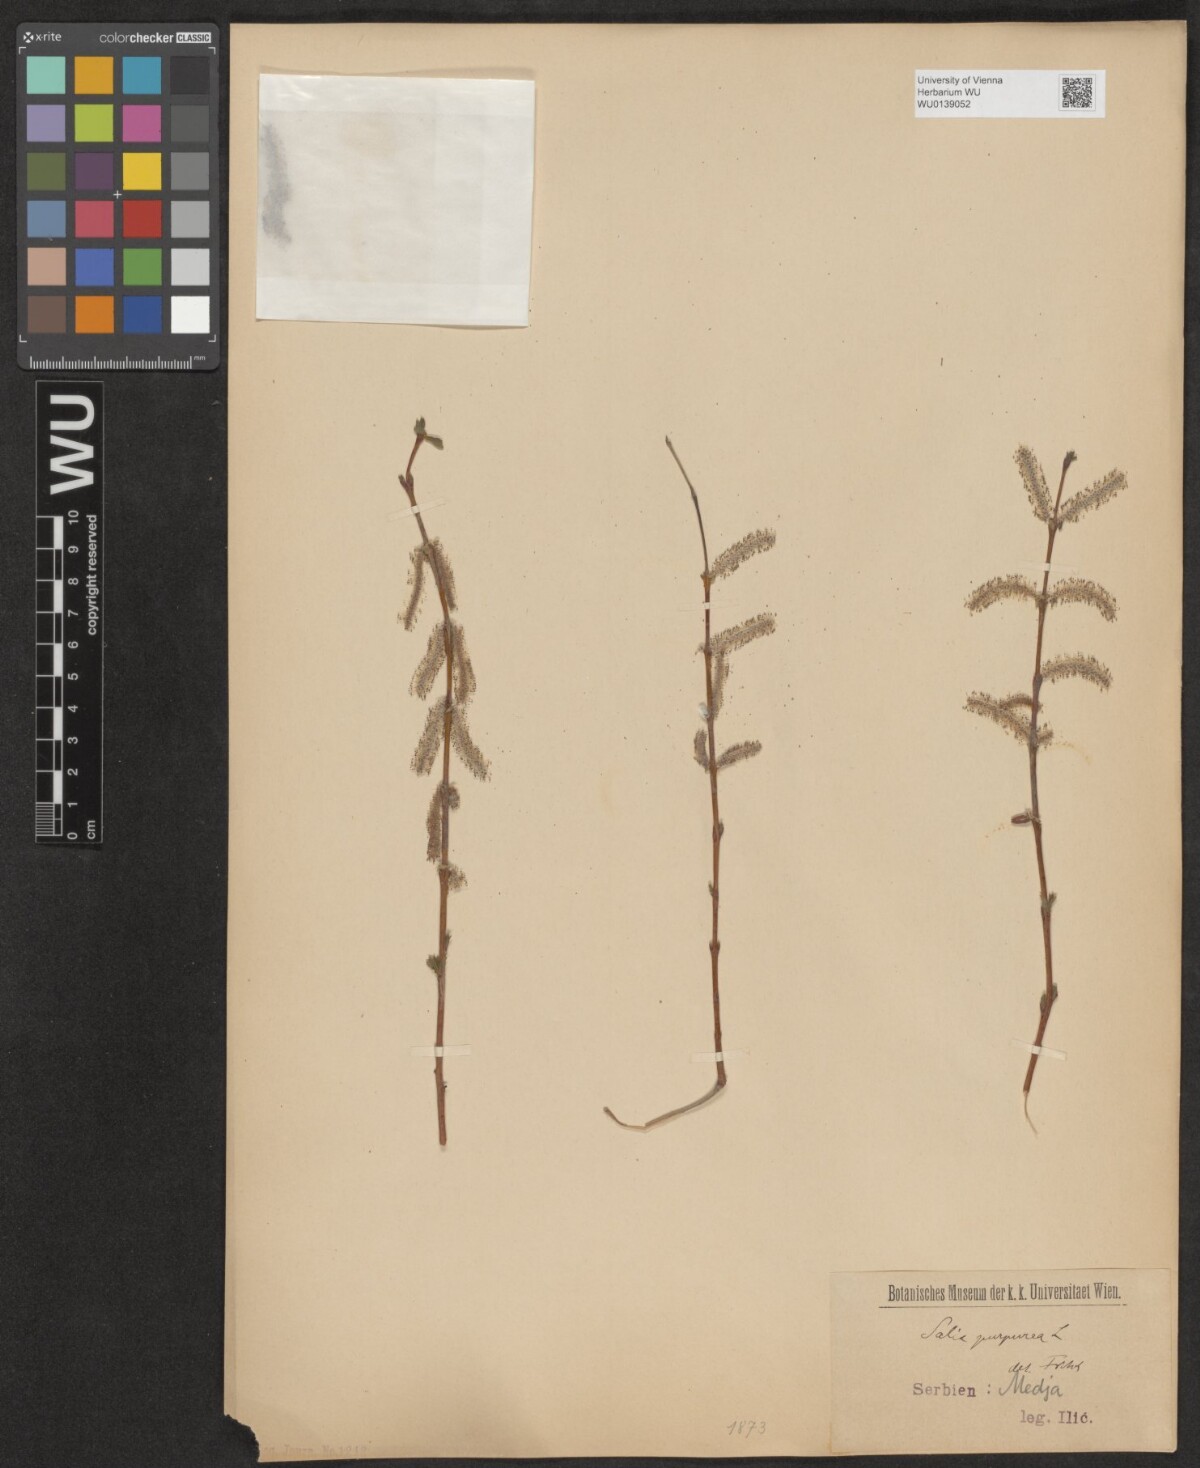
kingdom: Plantae
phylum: Tracheophyta
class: Magnoliopsida
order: Malpighiales
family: Salicaceae
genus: Salix
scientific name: Salix purpurea
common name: Purple willow
